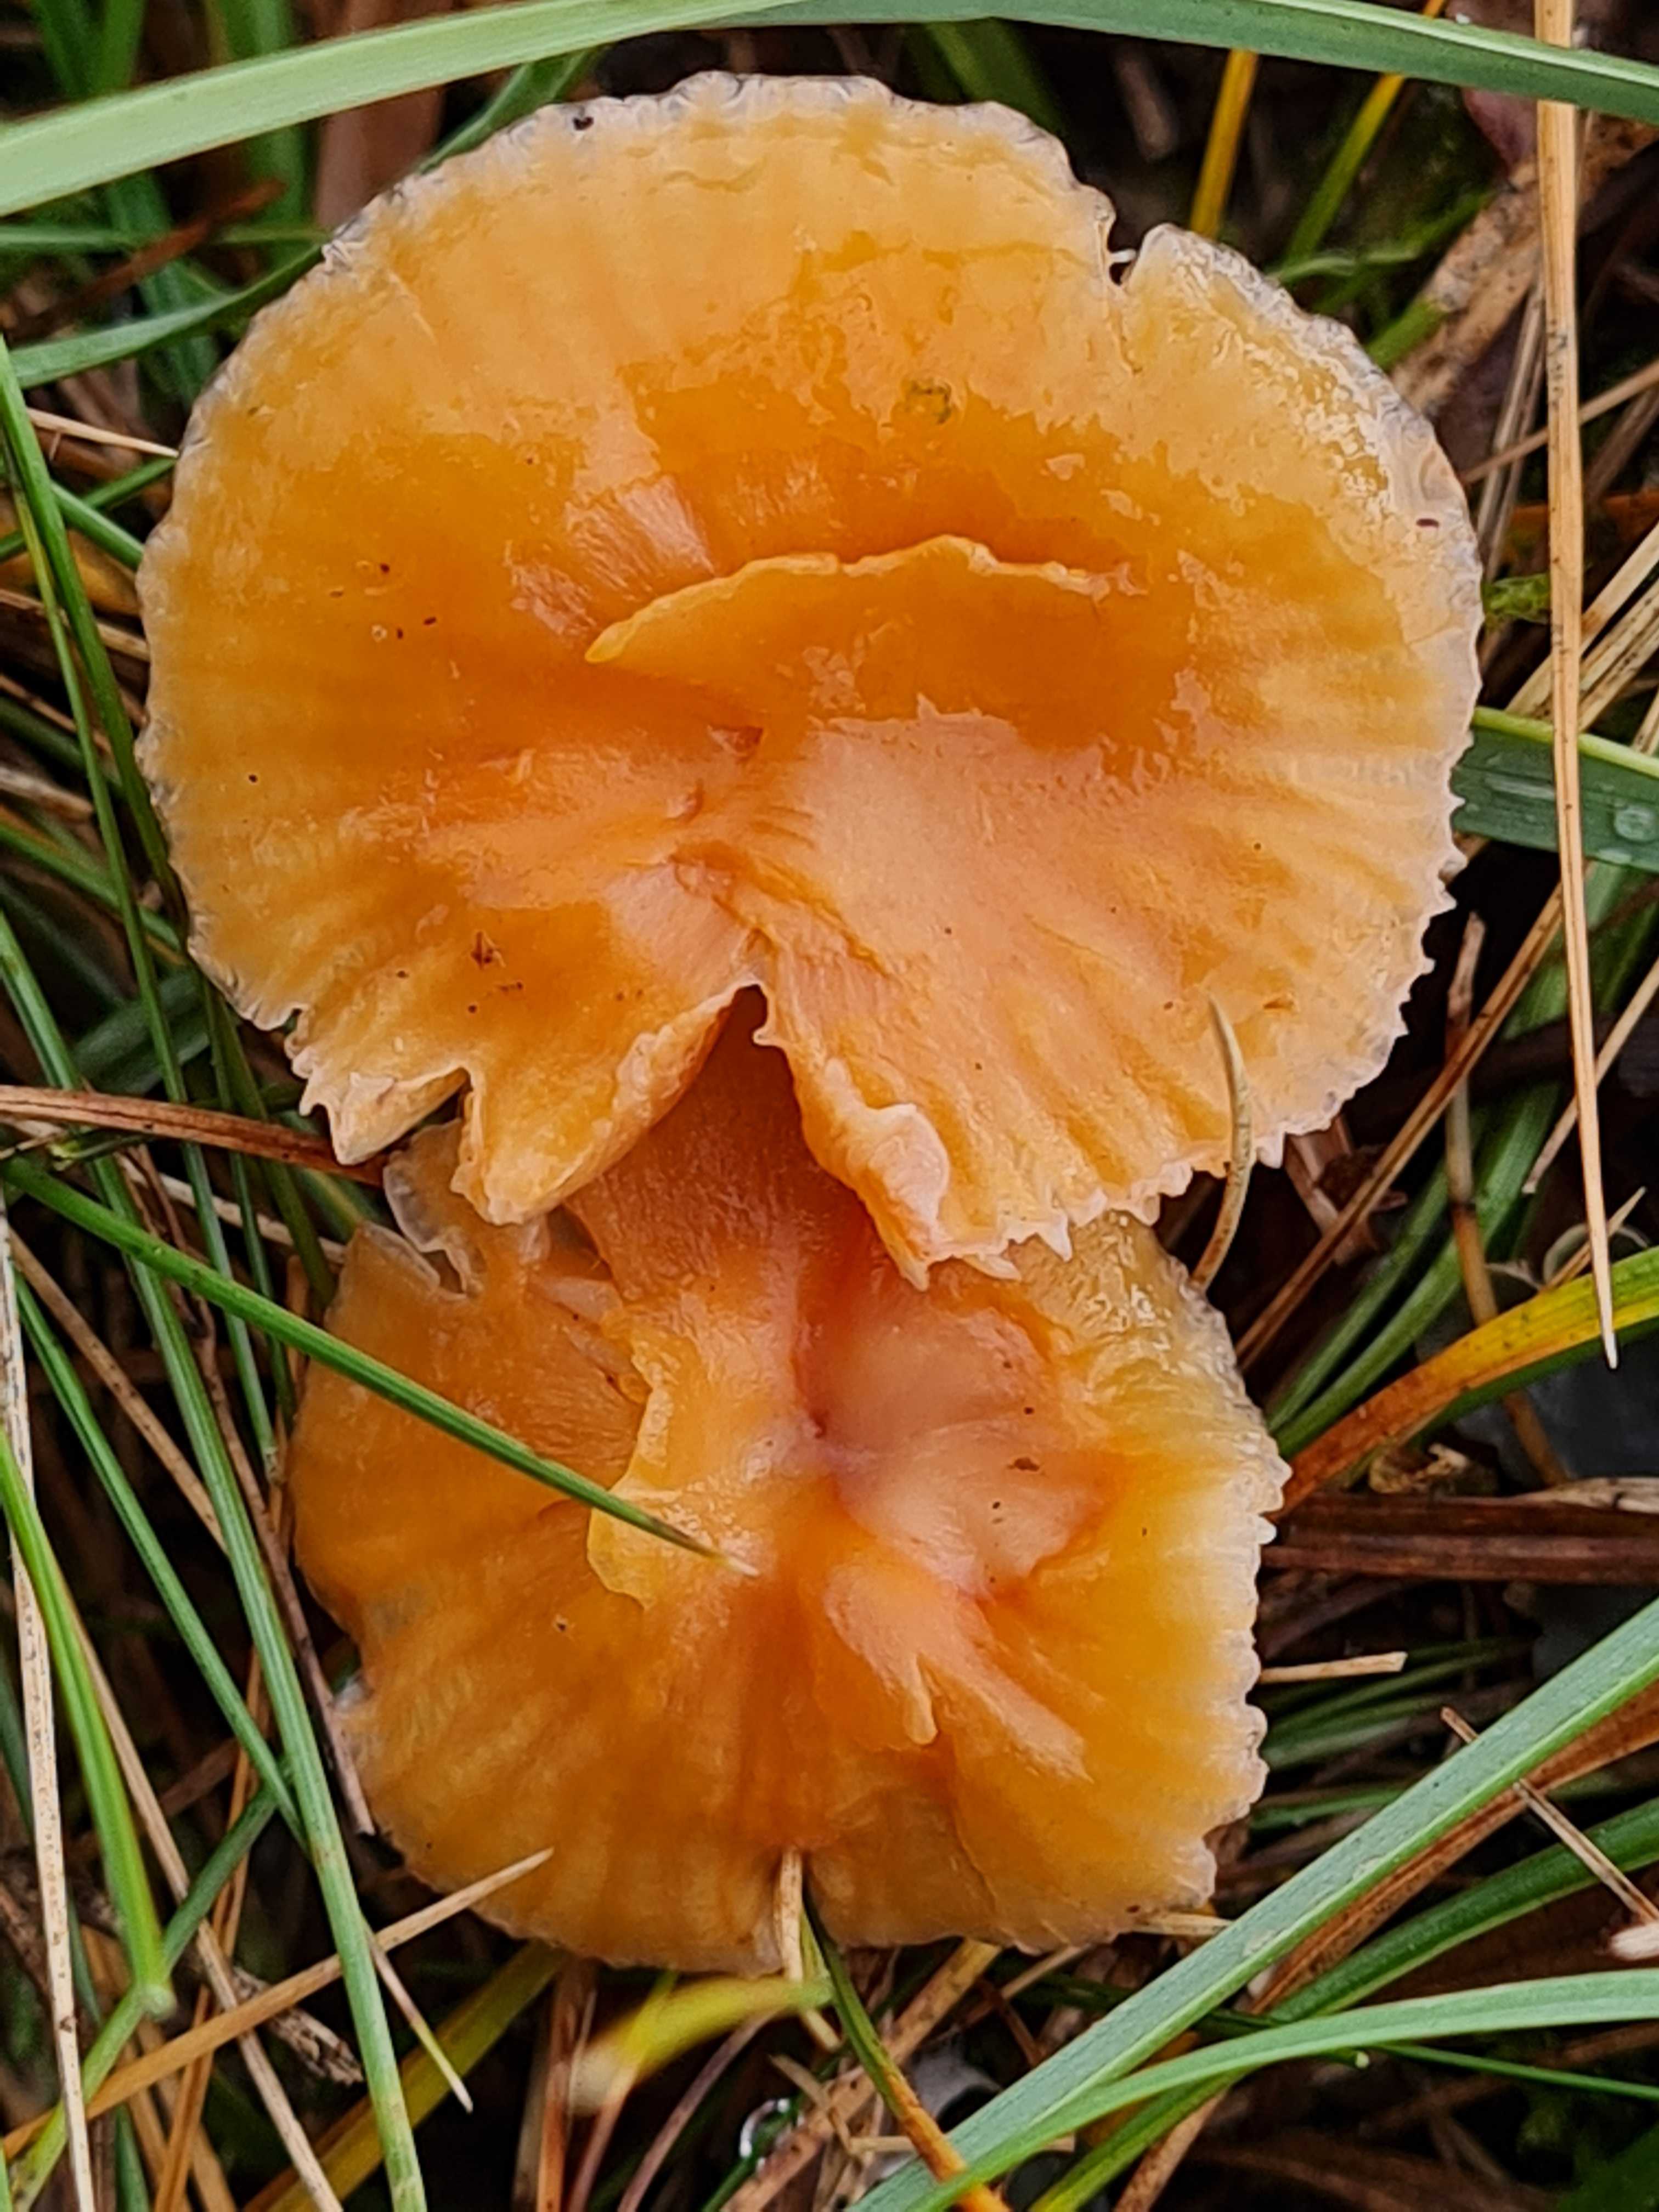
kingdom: Fungi
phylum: Basidiomycota
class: Agaricomycetes
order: Agaricales
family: Hygrophoraceae
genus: Hygrocybe
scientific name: Hygrocybe
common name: vokshat
